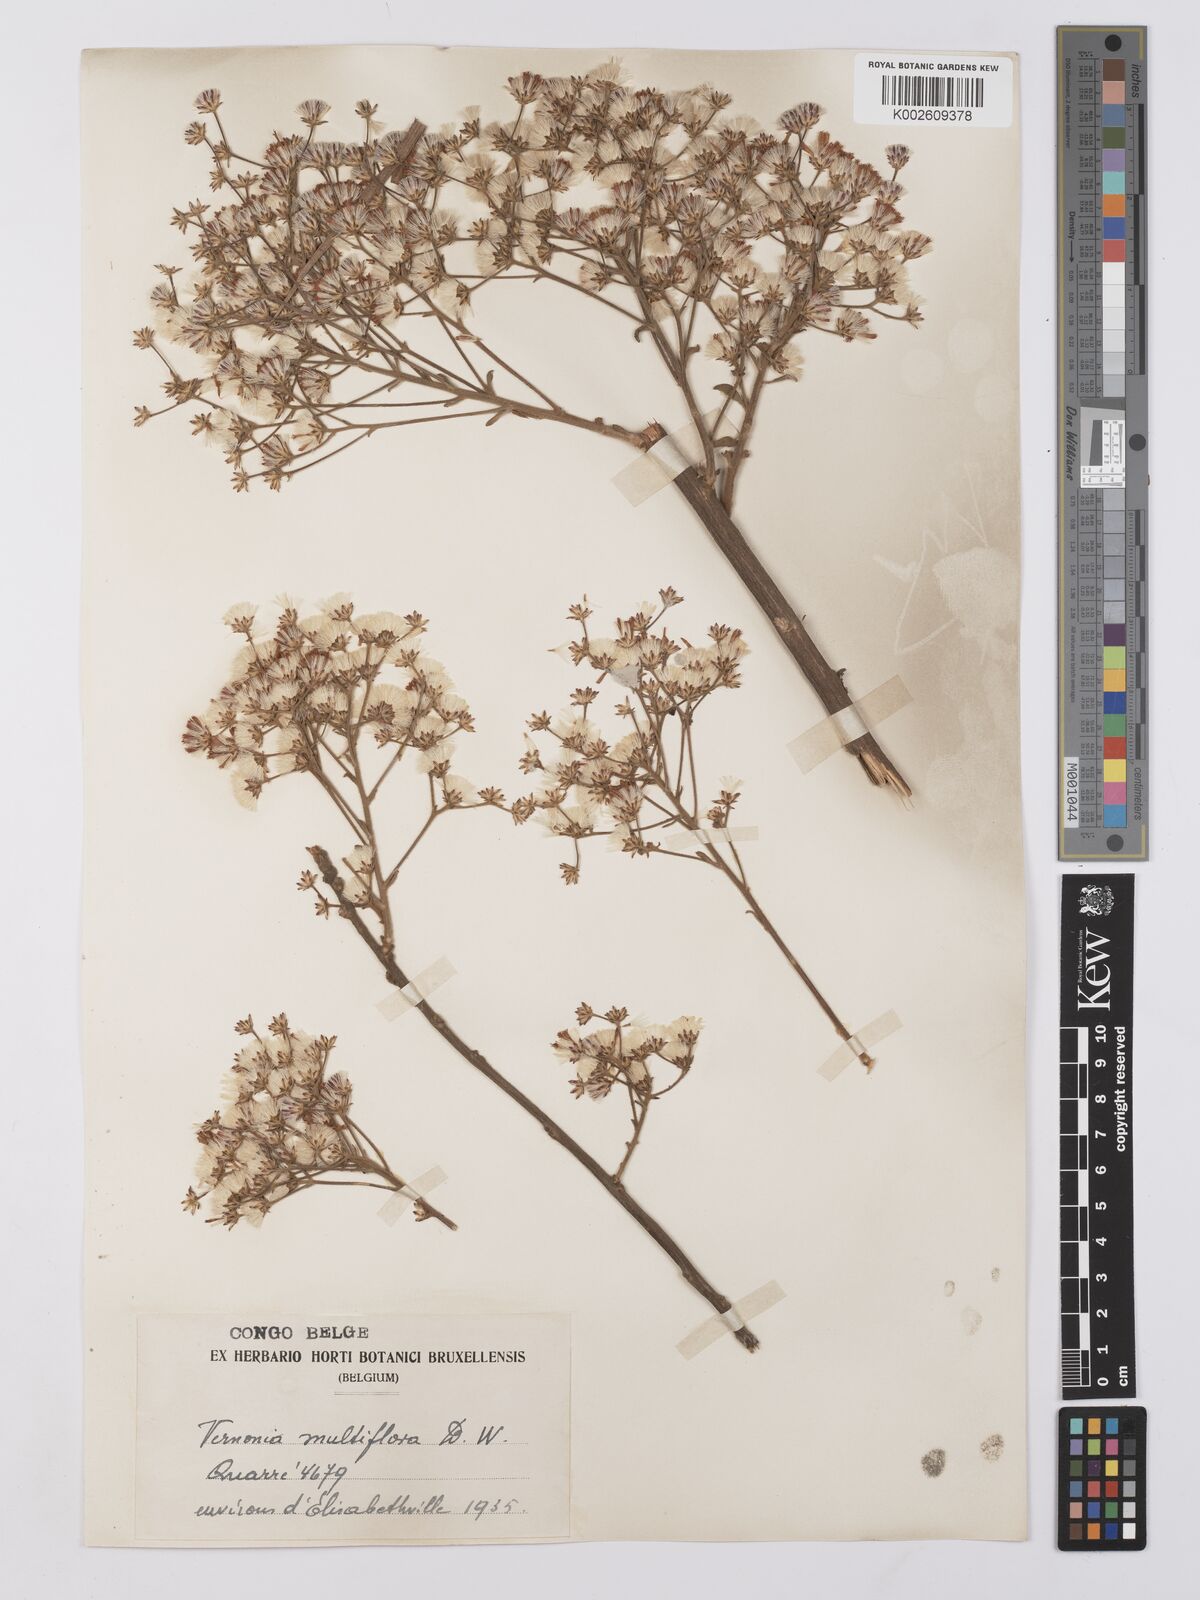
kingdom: Plantae
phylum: Tracheophyta
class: Magnoliopsida
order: Asterales
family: Asteraceae
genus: Vernonia
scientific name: Vernonia suprafastigiata
